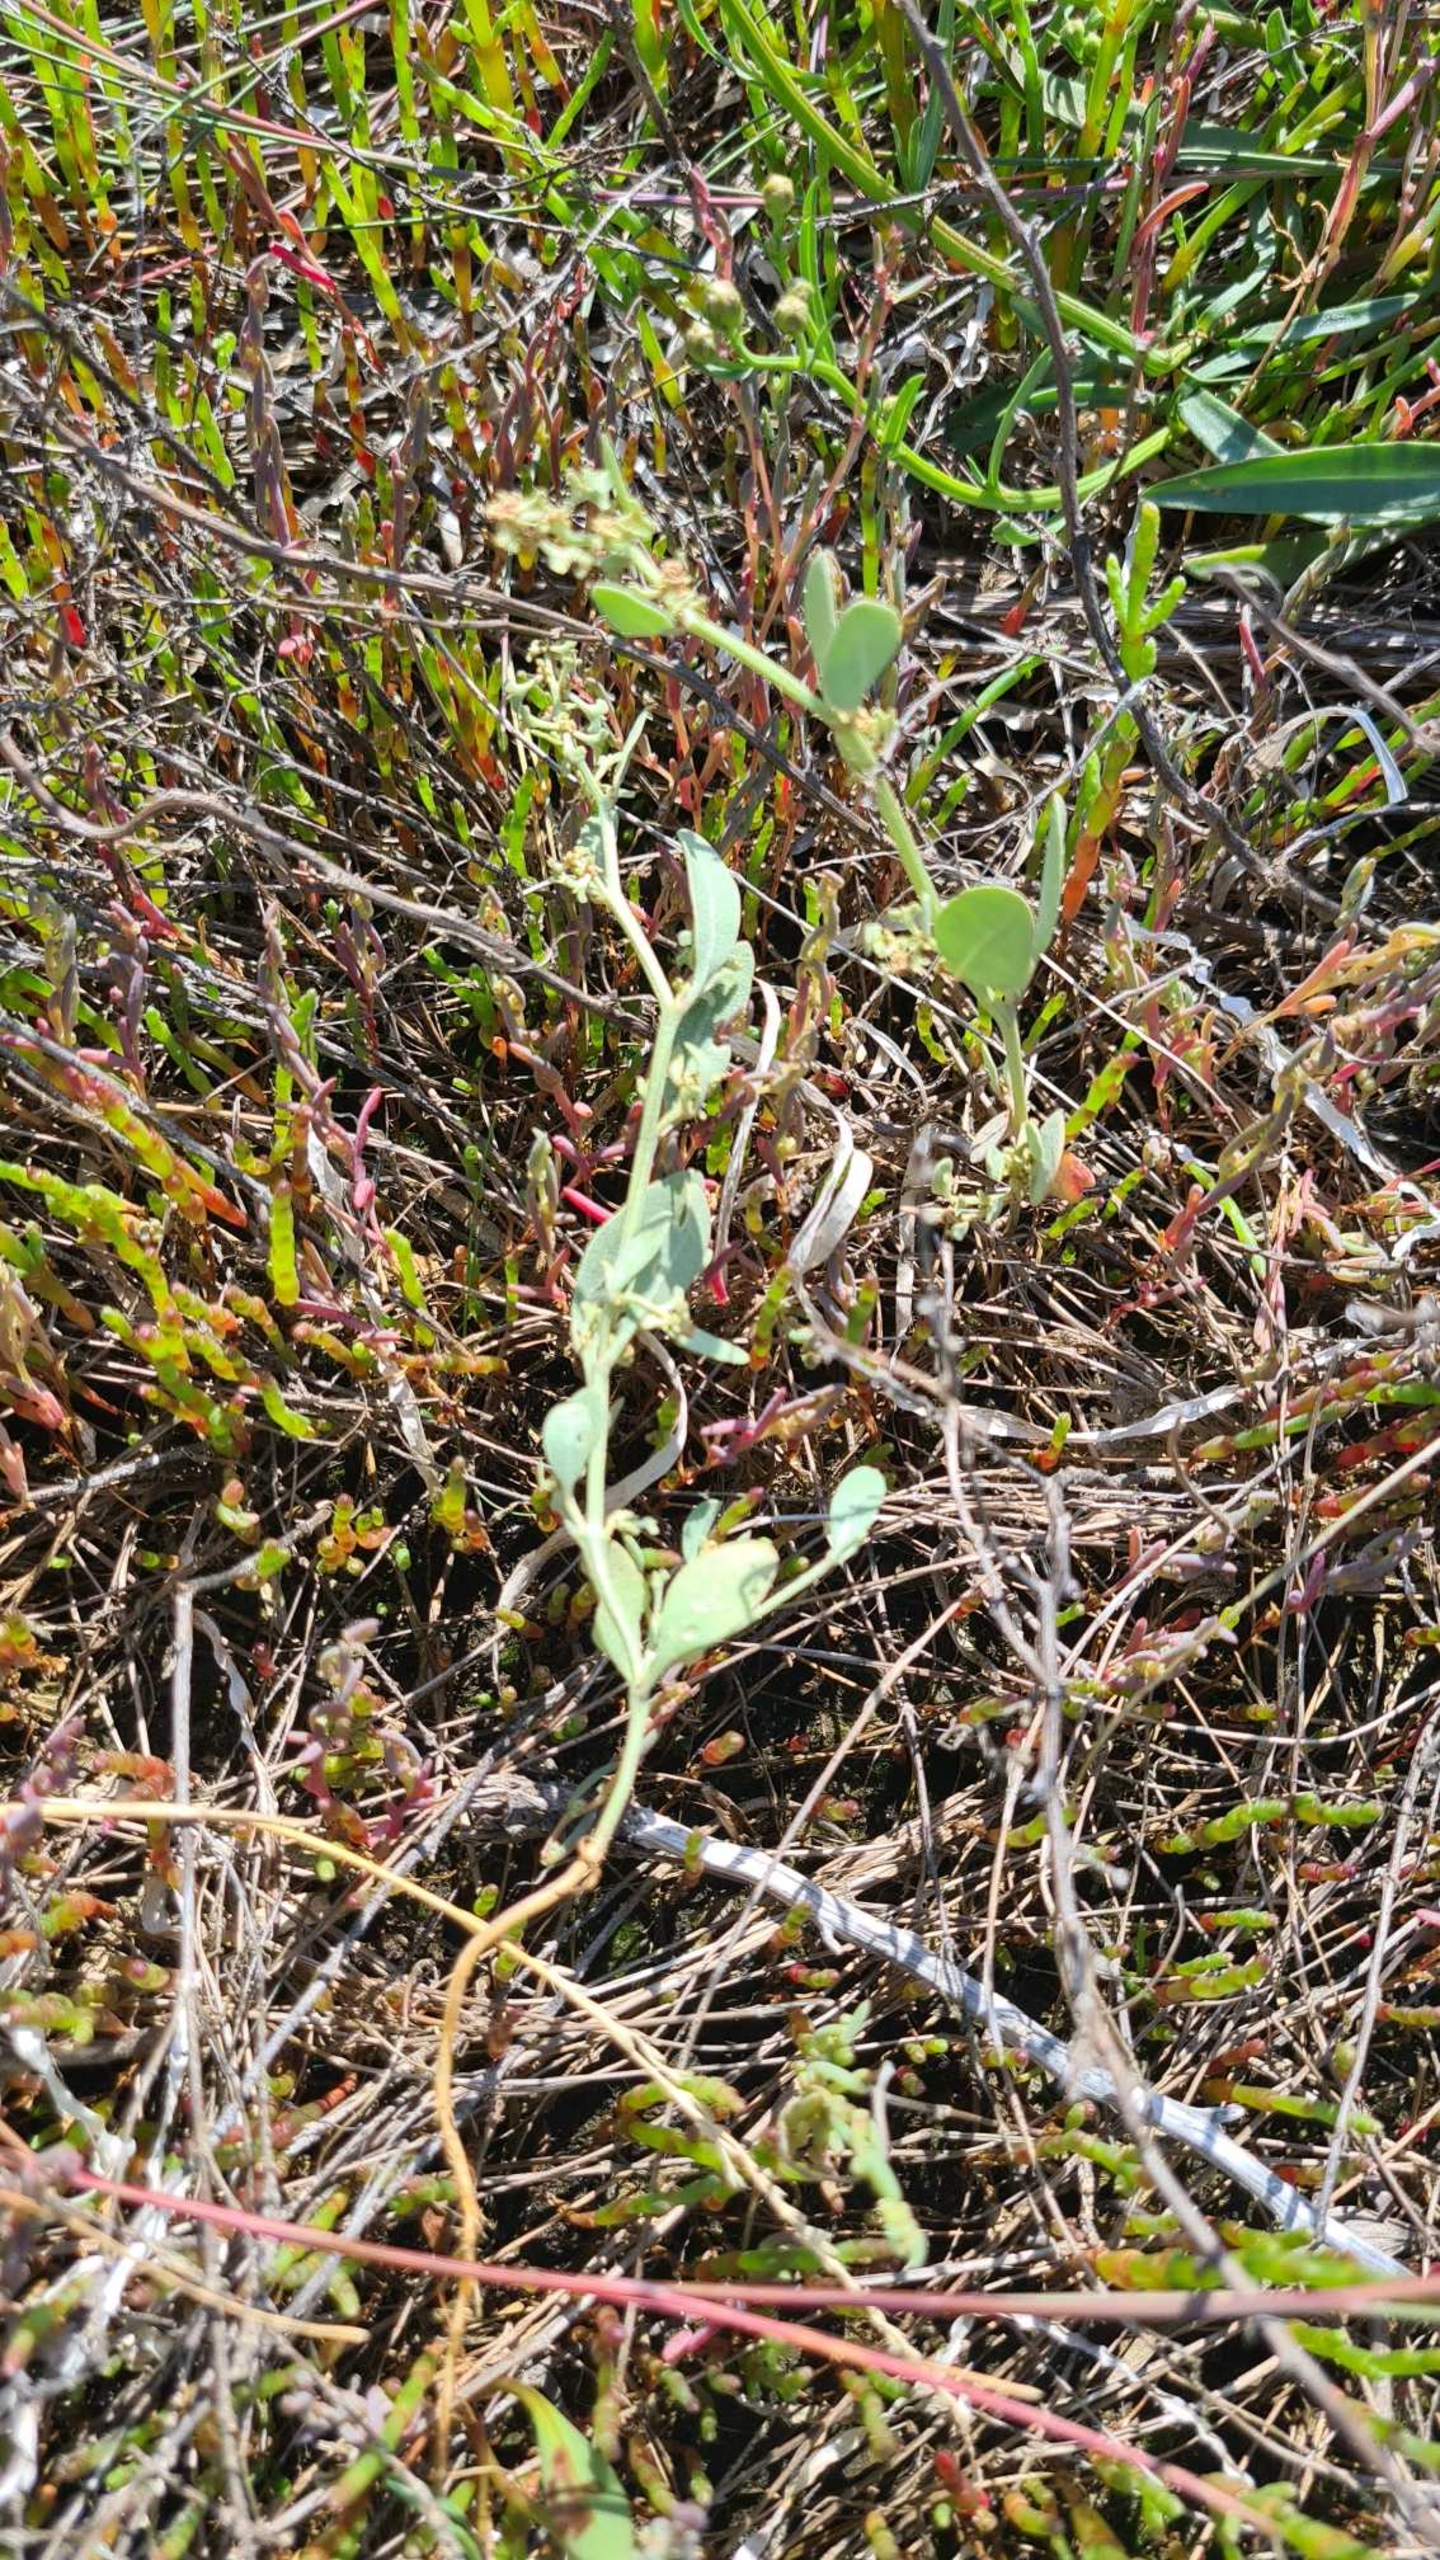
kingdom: Plantae
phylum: Tracheophyta
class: Magnoliopsida
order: Caryophyllales
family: Amaranthaceae
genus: Halimione
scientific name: Halimione pedunculata
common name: Stilket kilebæger
